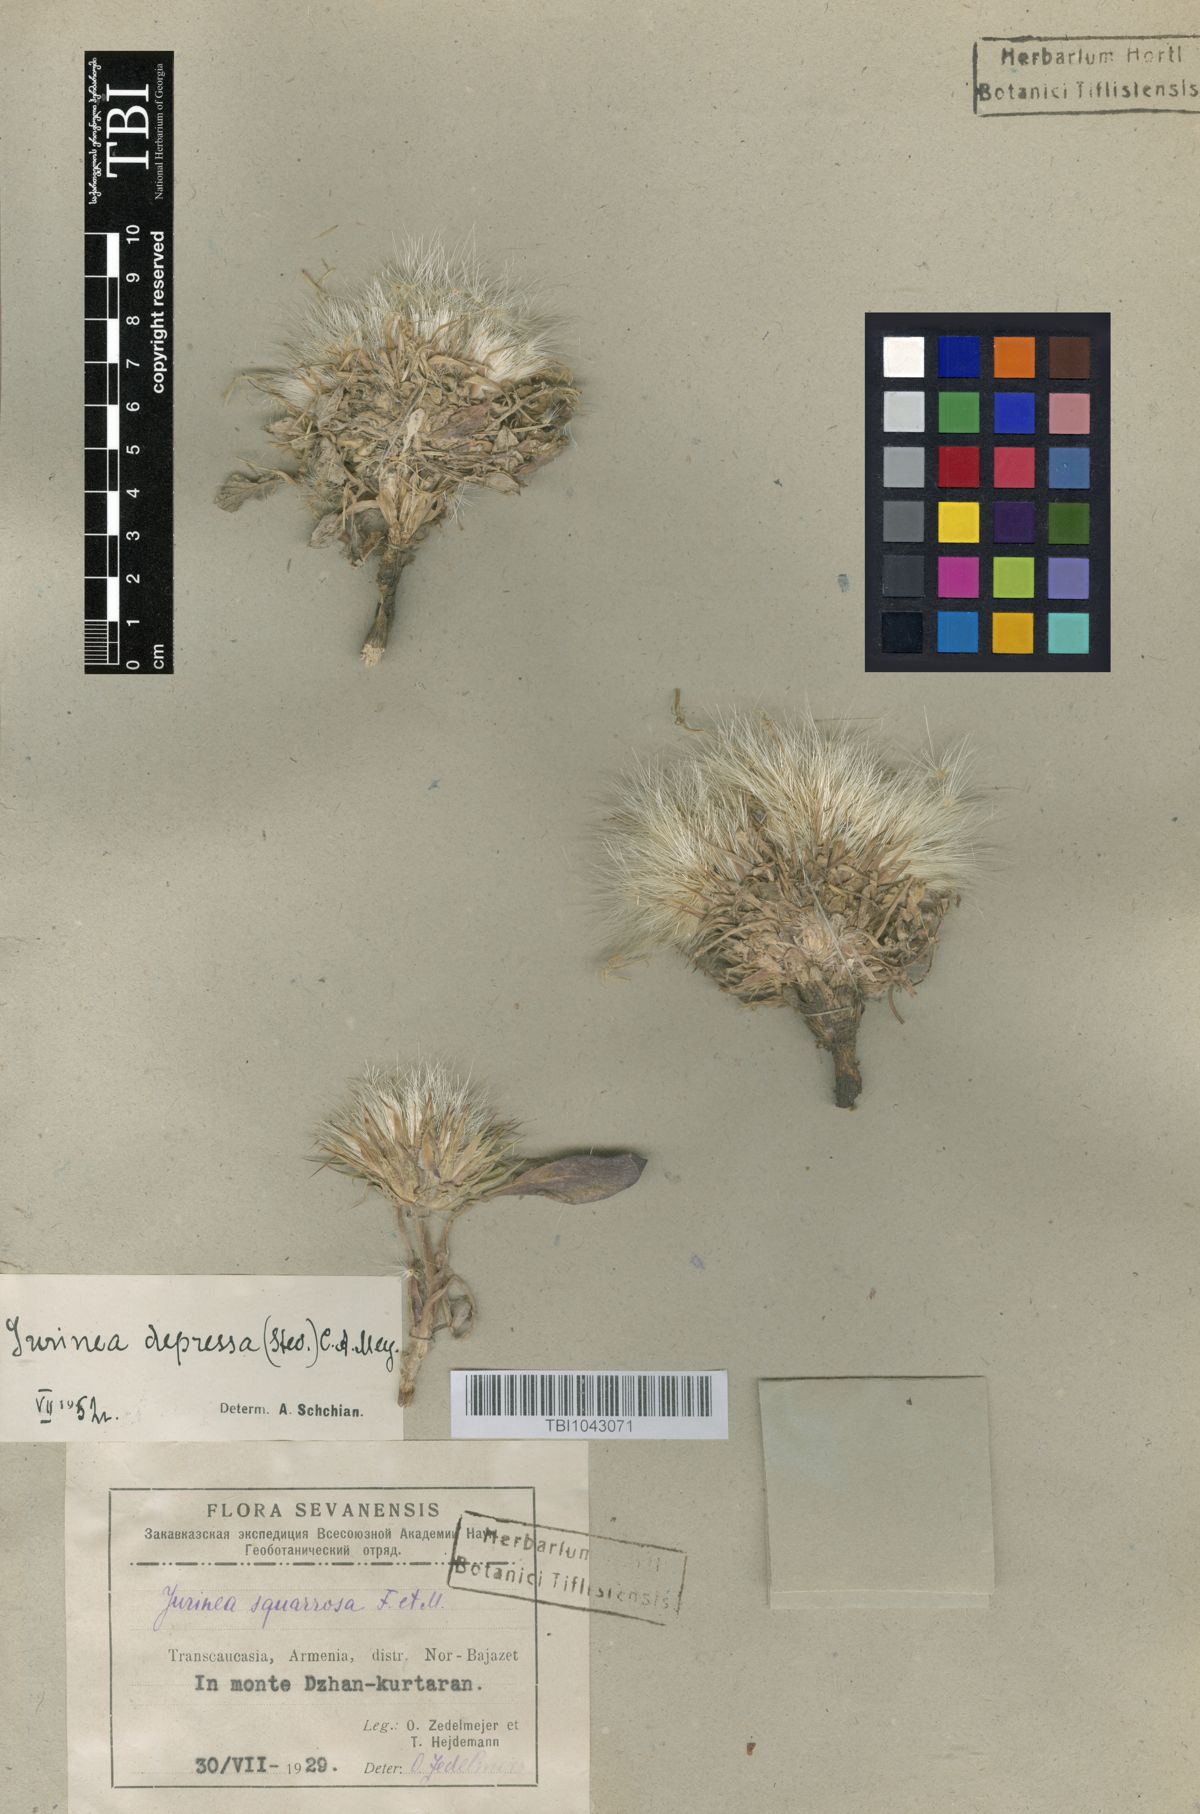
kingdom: Plantae
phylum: Tracheophyta
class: Magnoliopsida
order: Asterales
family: Asteraceae
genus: Jurinea
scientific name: Jurinea moschus
